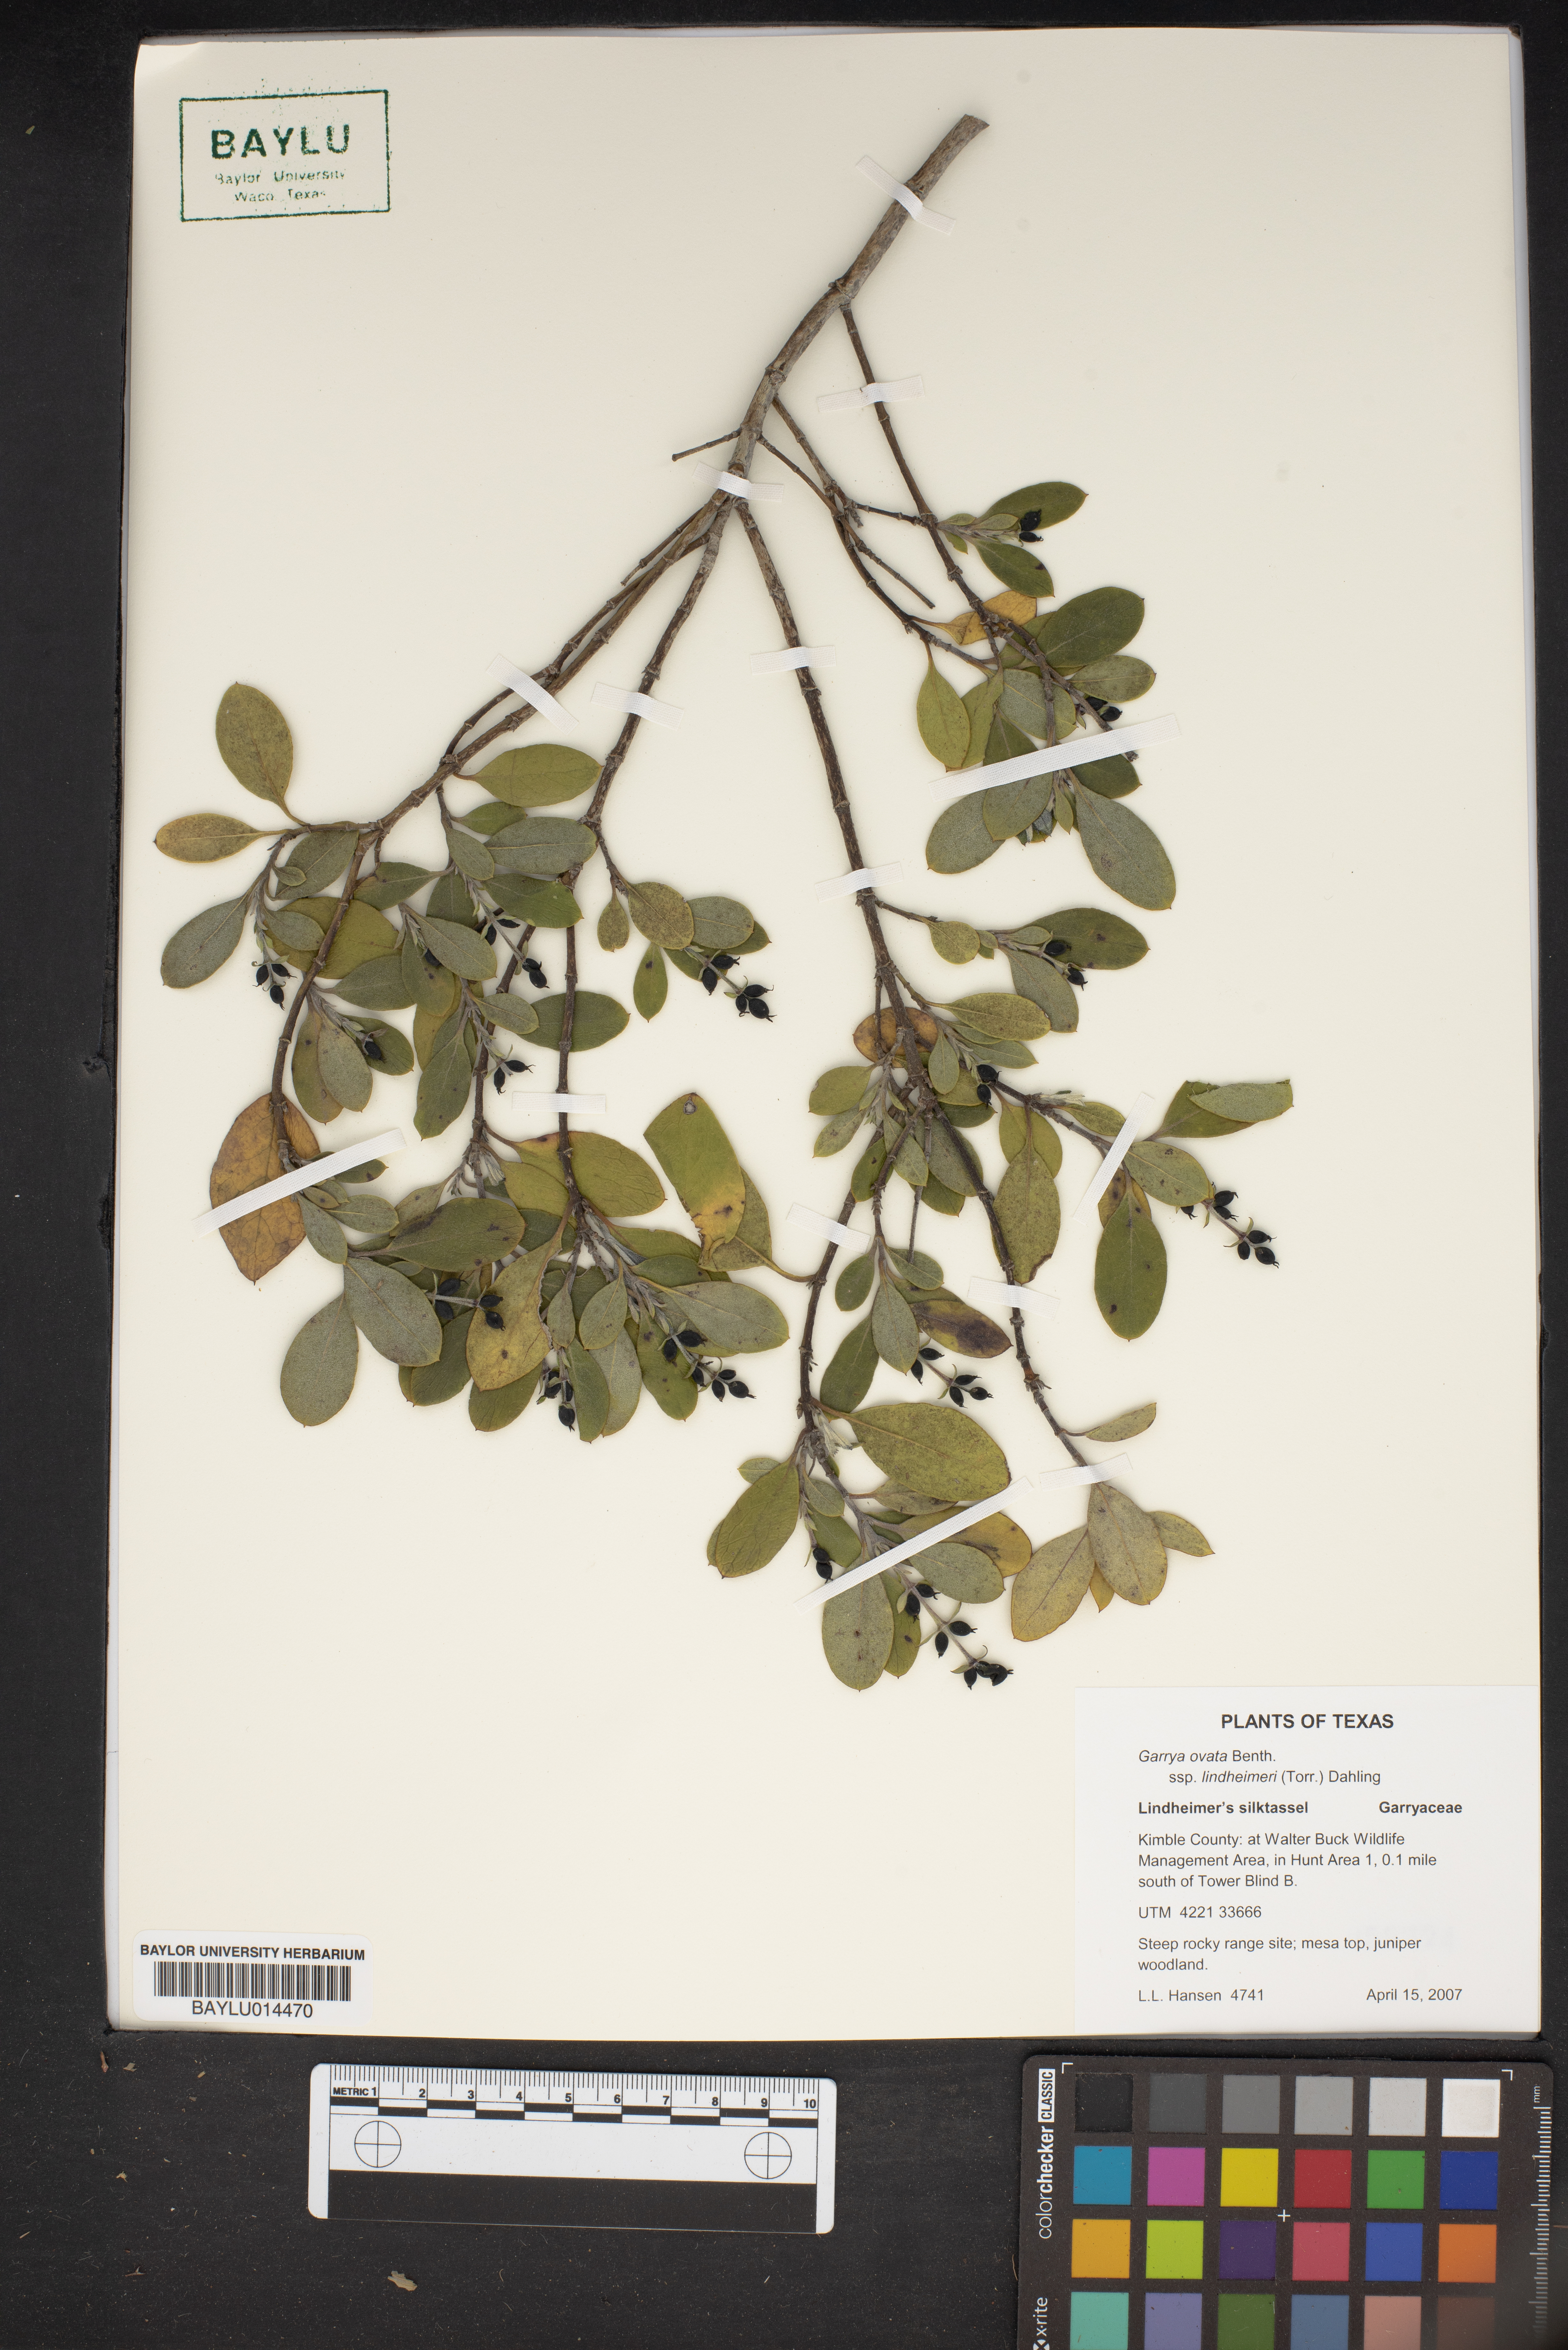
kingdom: Plantae
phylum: Tracheophyta
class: Magnoliopsida
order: Garryales
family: Garryaceae
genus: Garrya
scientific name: Garrya lindheimeri
